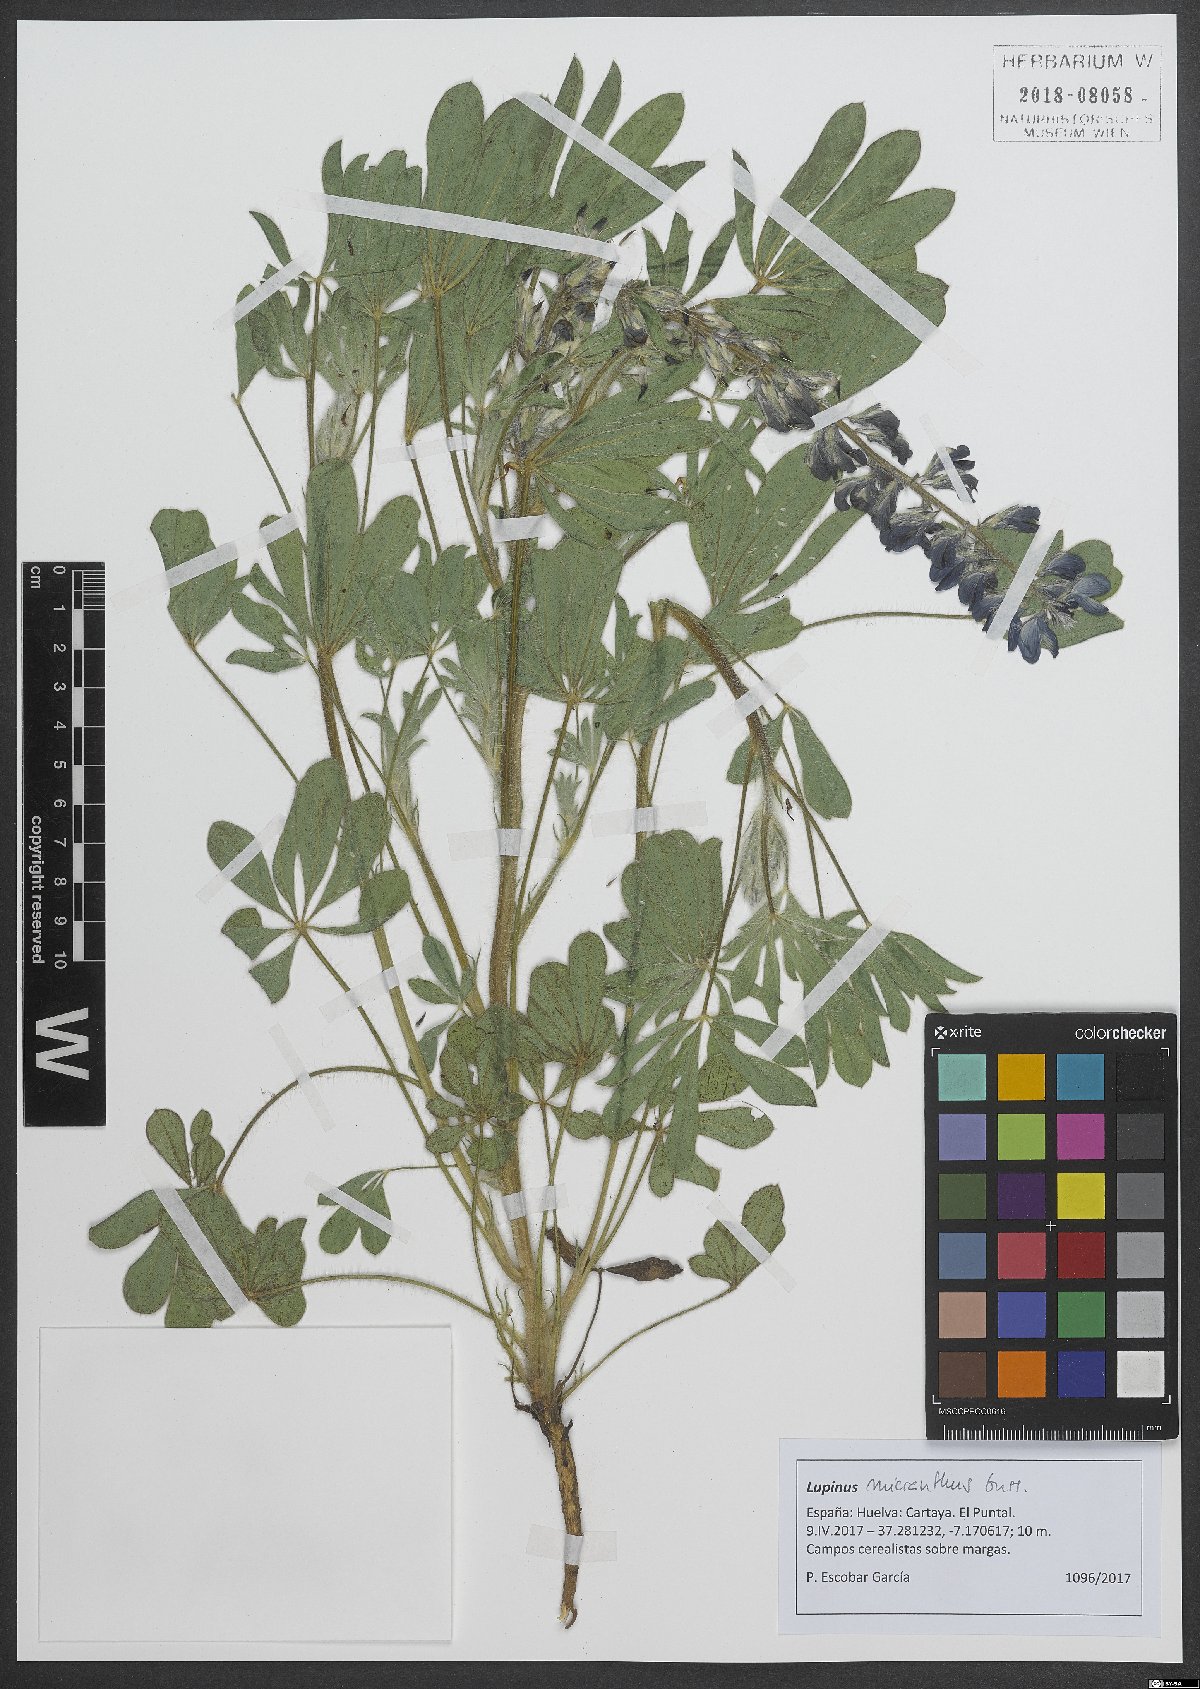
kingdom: Plantae
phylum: Tracheophyta
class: Magnoliopsida
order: Fabales
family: Fabaceae
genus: Lupinus
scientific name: Lupinus gussoneanus
